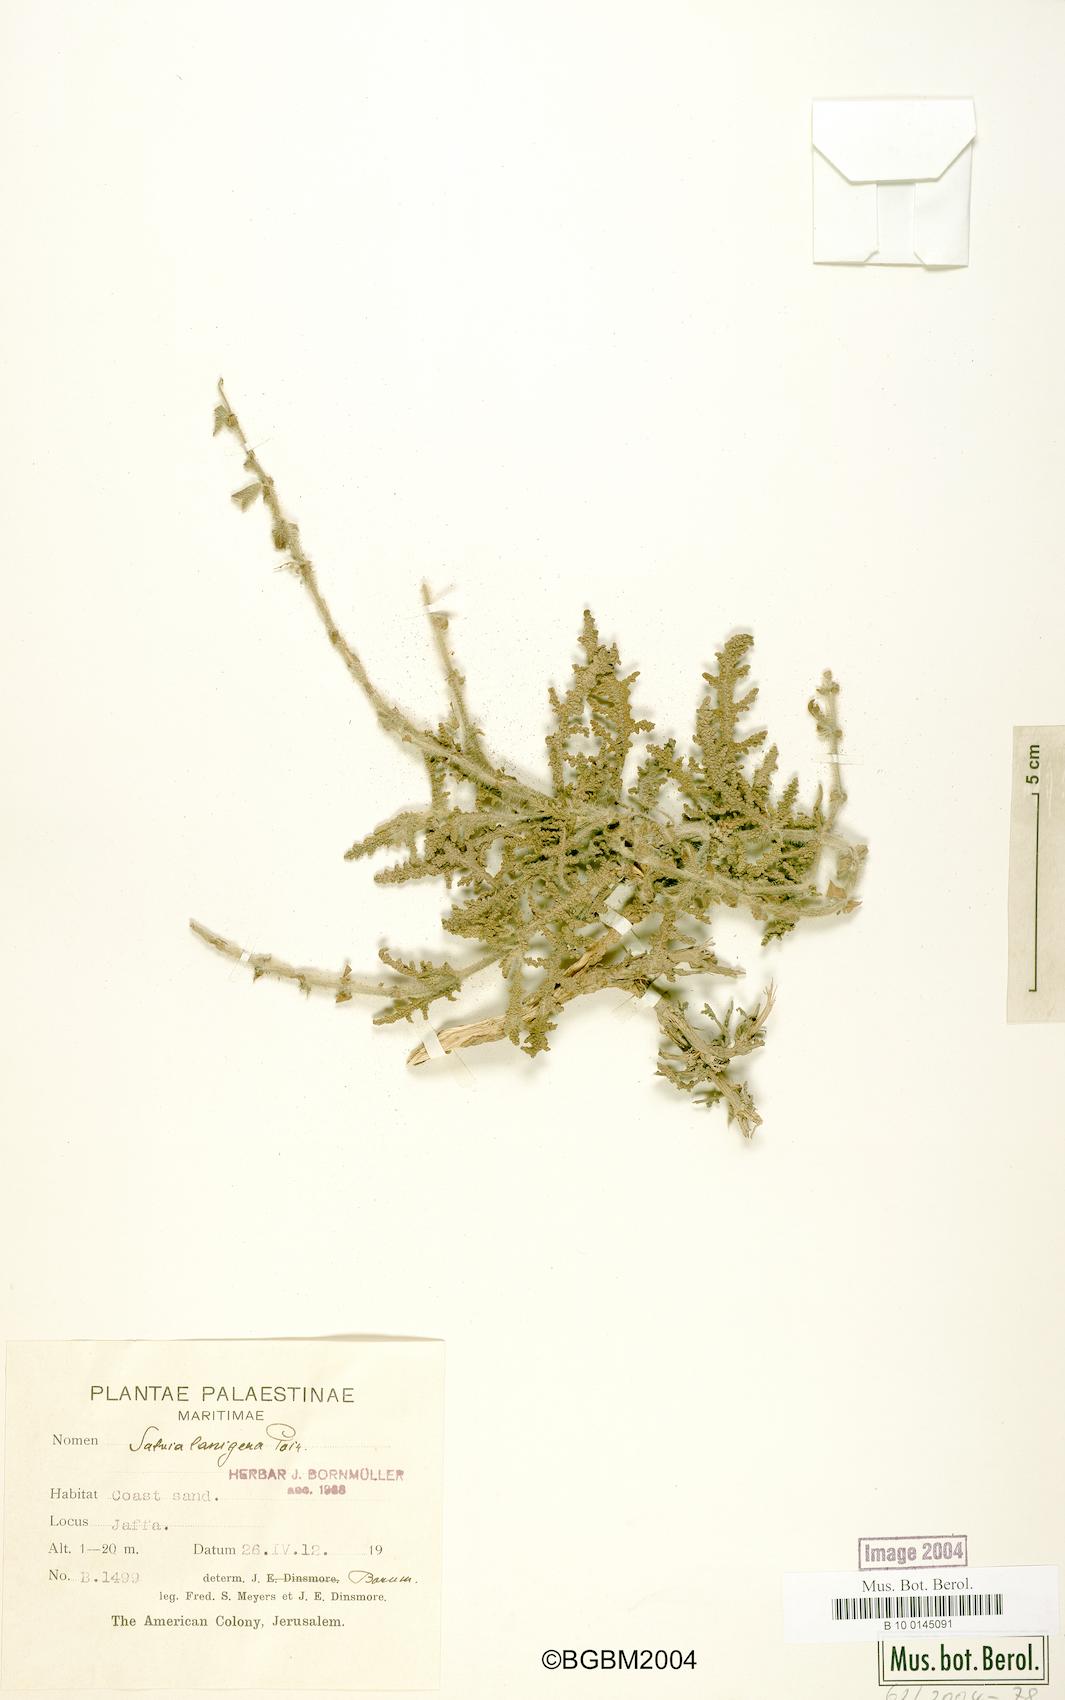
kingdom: Plantae
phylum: Tracheophyta
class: Magnoliopsida
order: Lamiales
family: Lamiaceae
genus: Salvia
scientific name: Salvia lanigera
